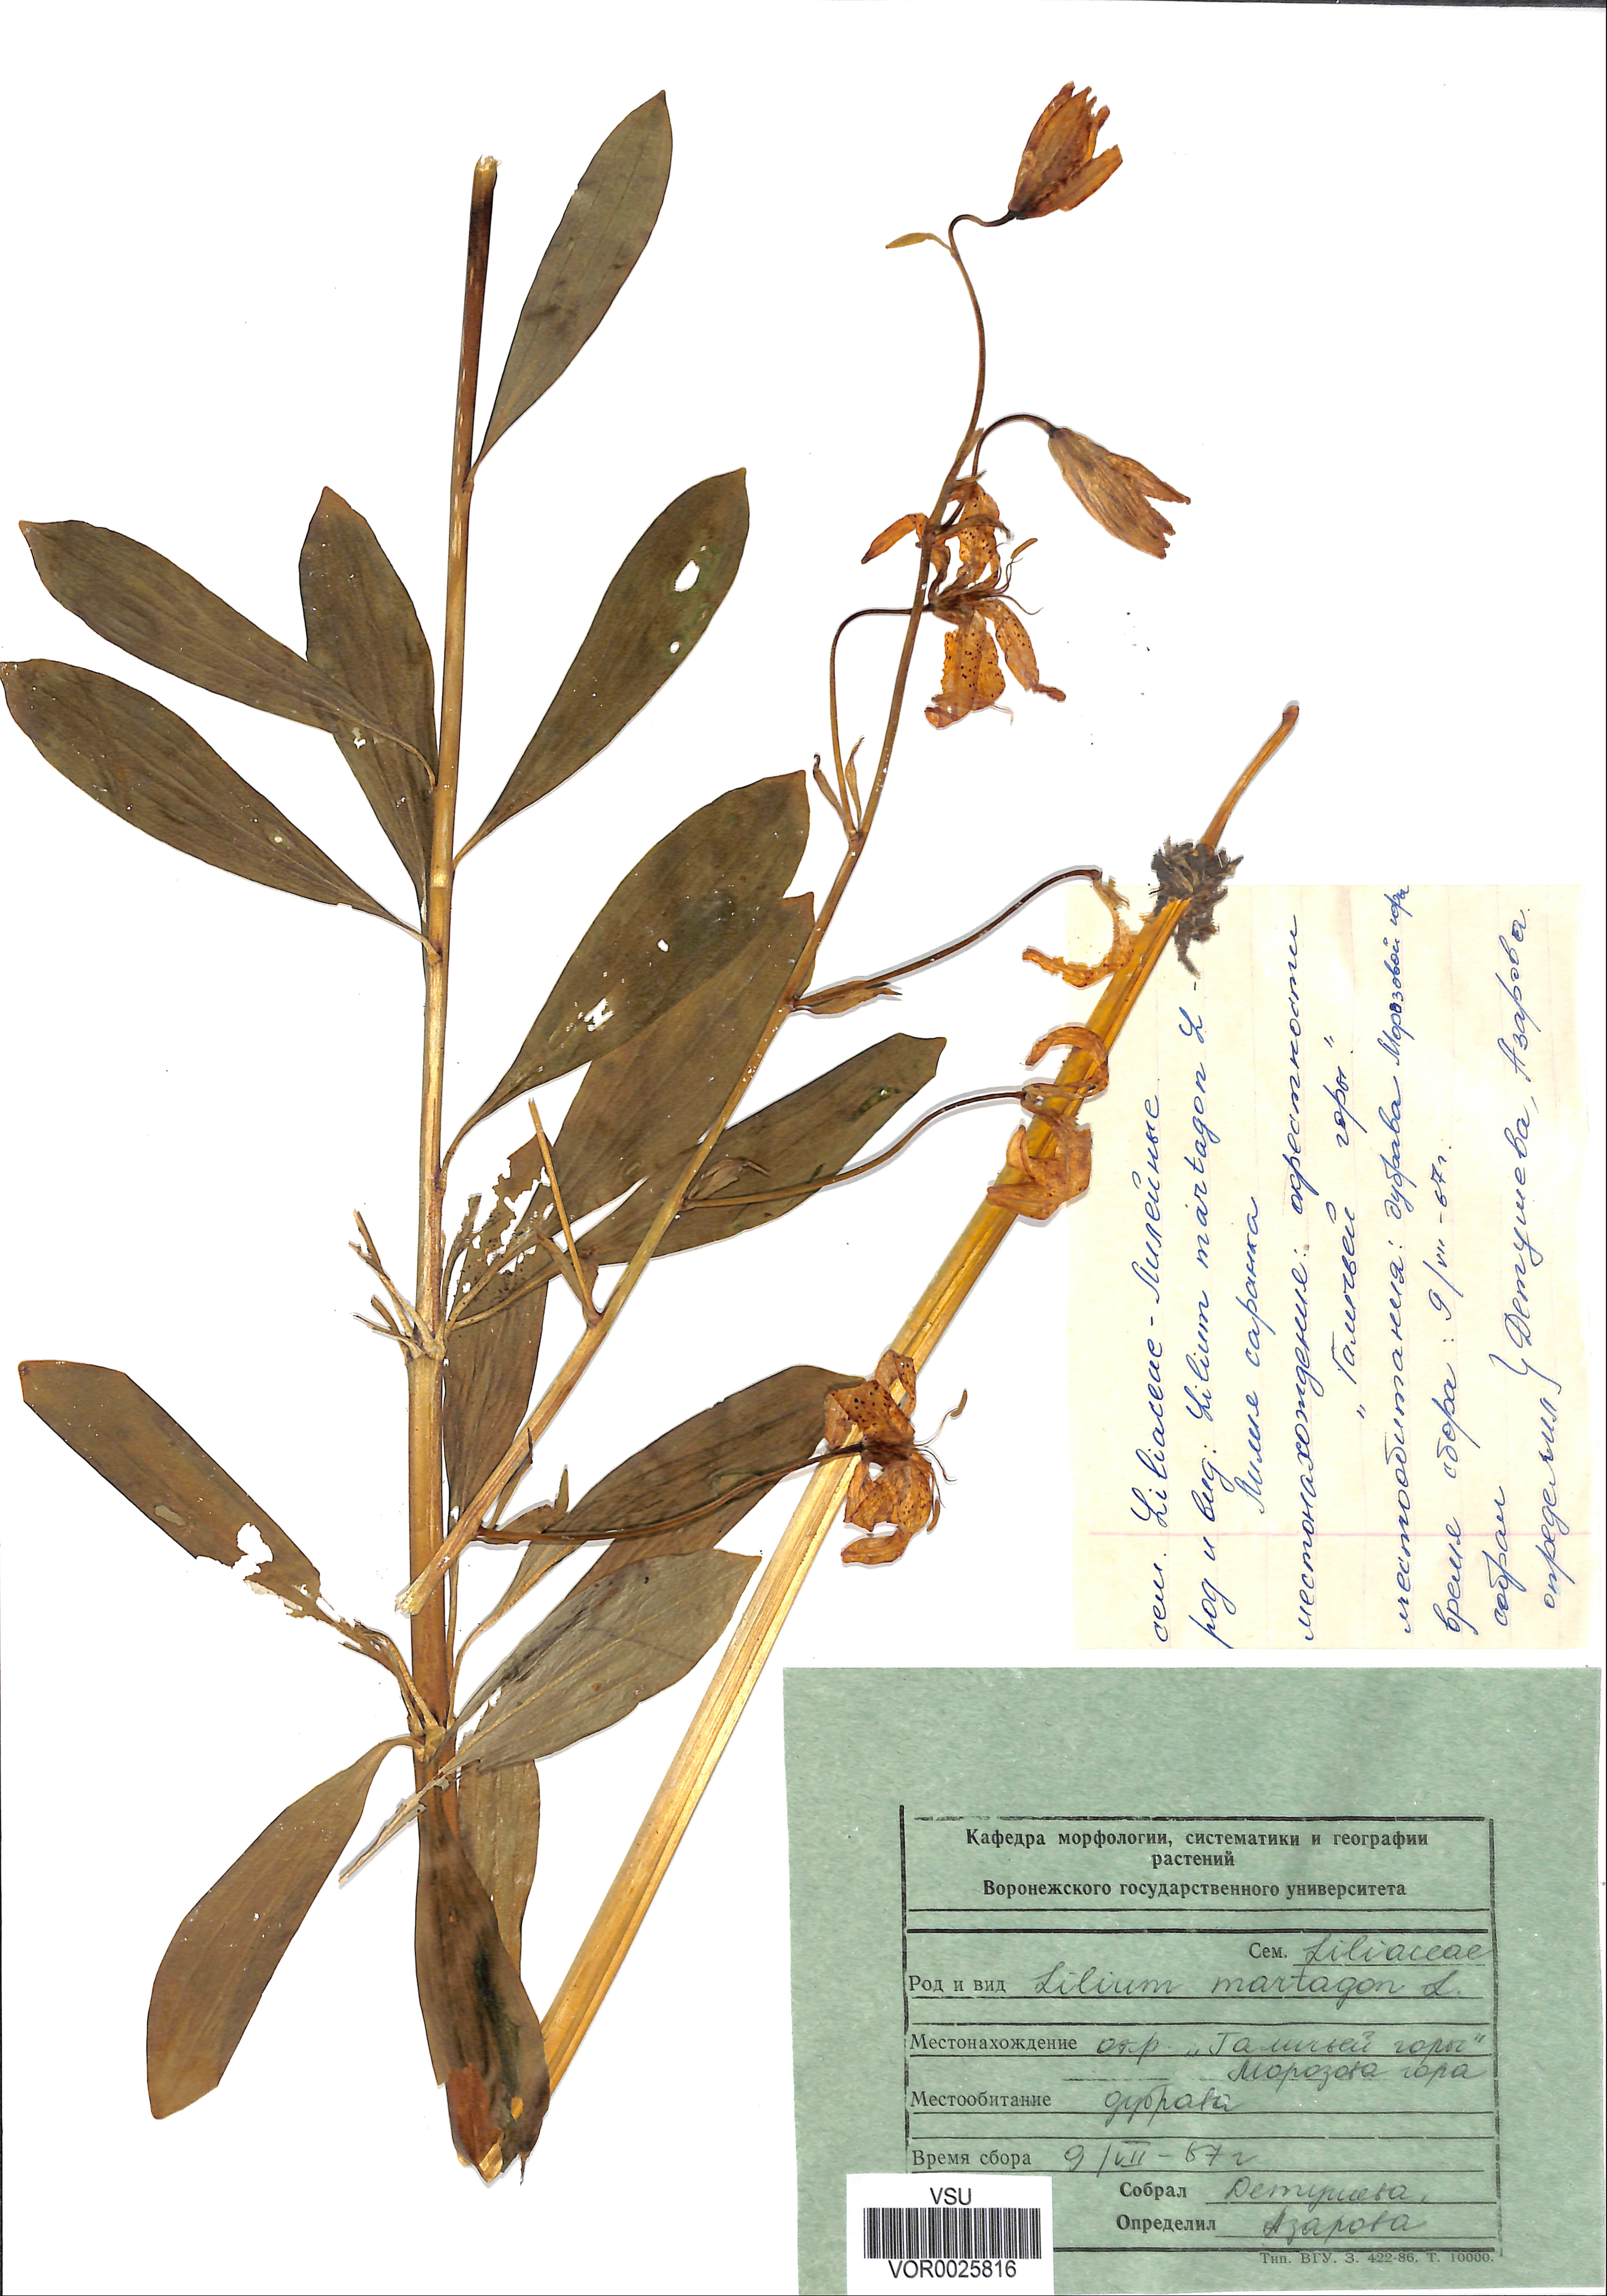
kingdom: Plantae
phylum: Tracheophyta
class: Liliopsida
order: Liliales
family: Liliaceae
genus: Lilium
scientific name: Lilium martagon
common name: Martagon lily
